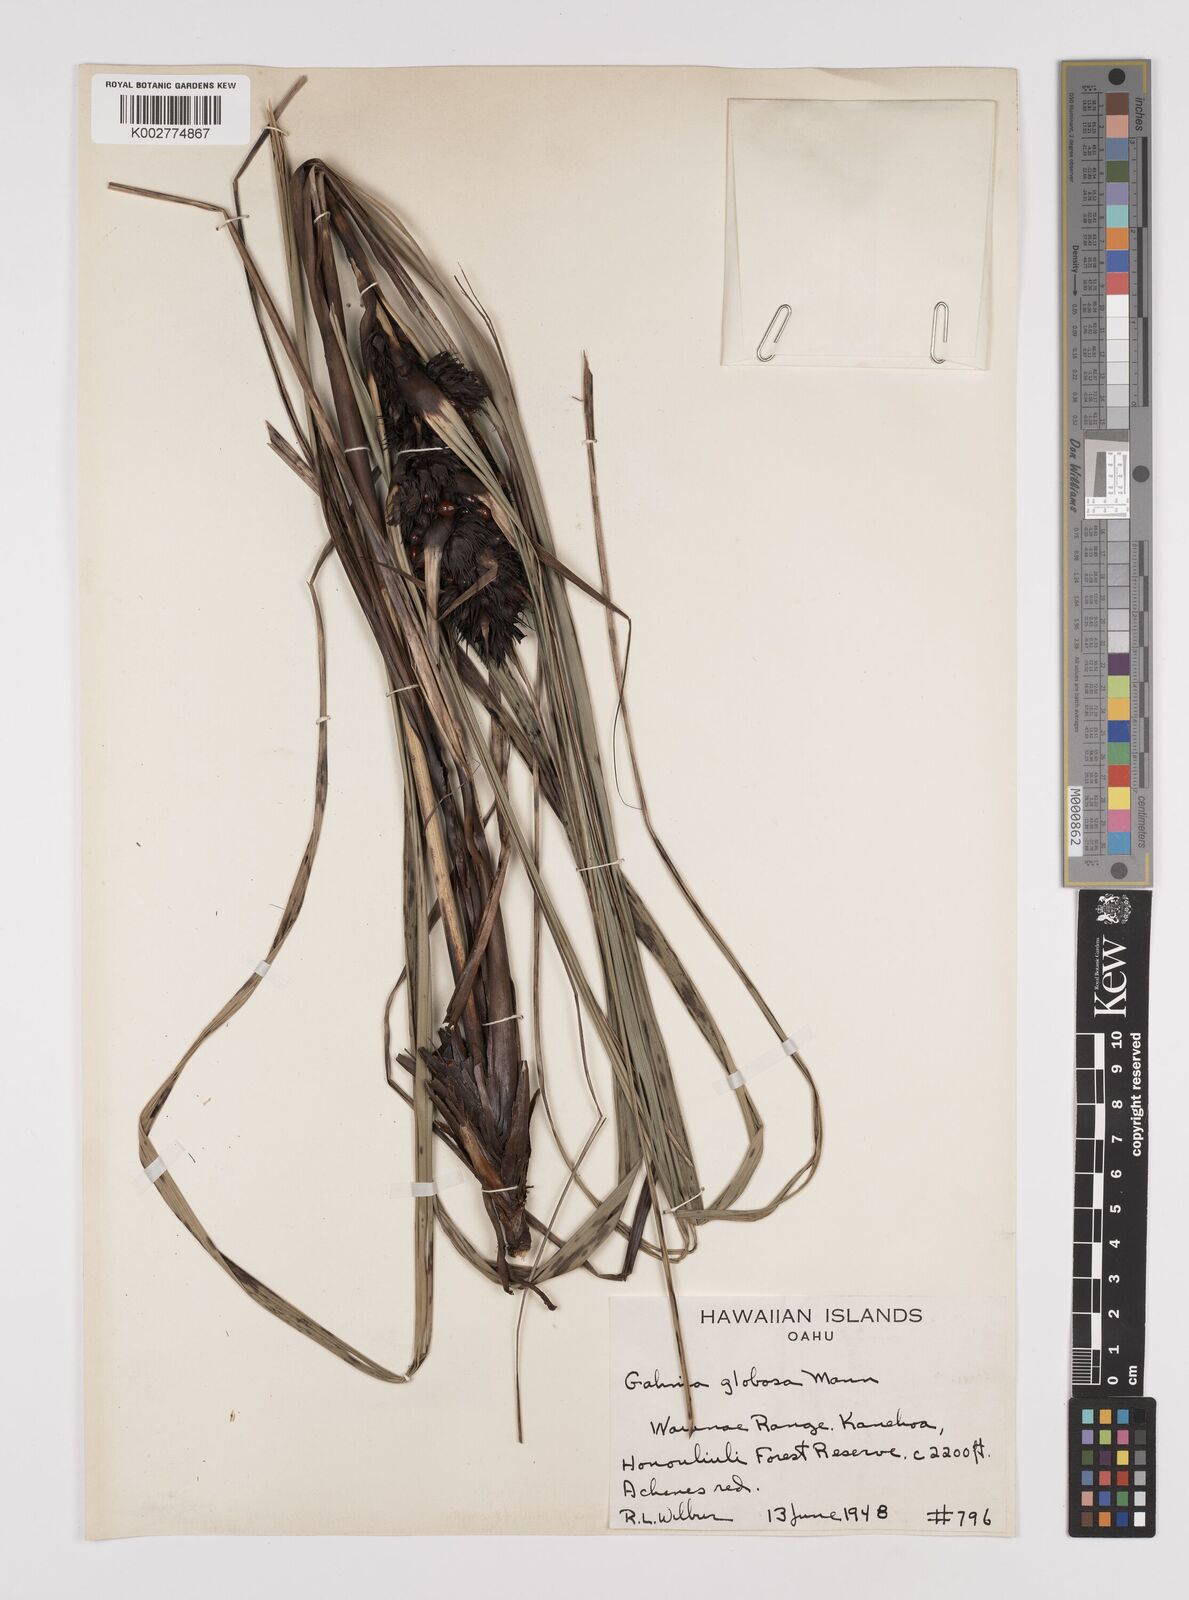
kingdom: Plantae
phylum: Tracheophyta
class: Liliopsida
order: Poales
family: Cyperaceae
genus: Gahnia
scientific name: Gahnia aspera
